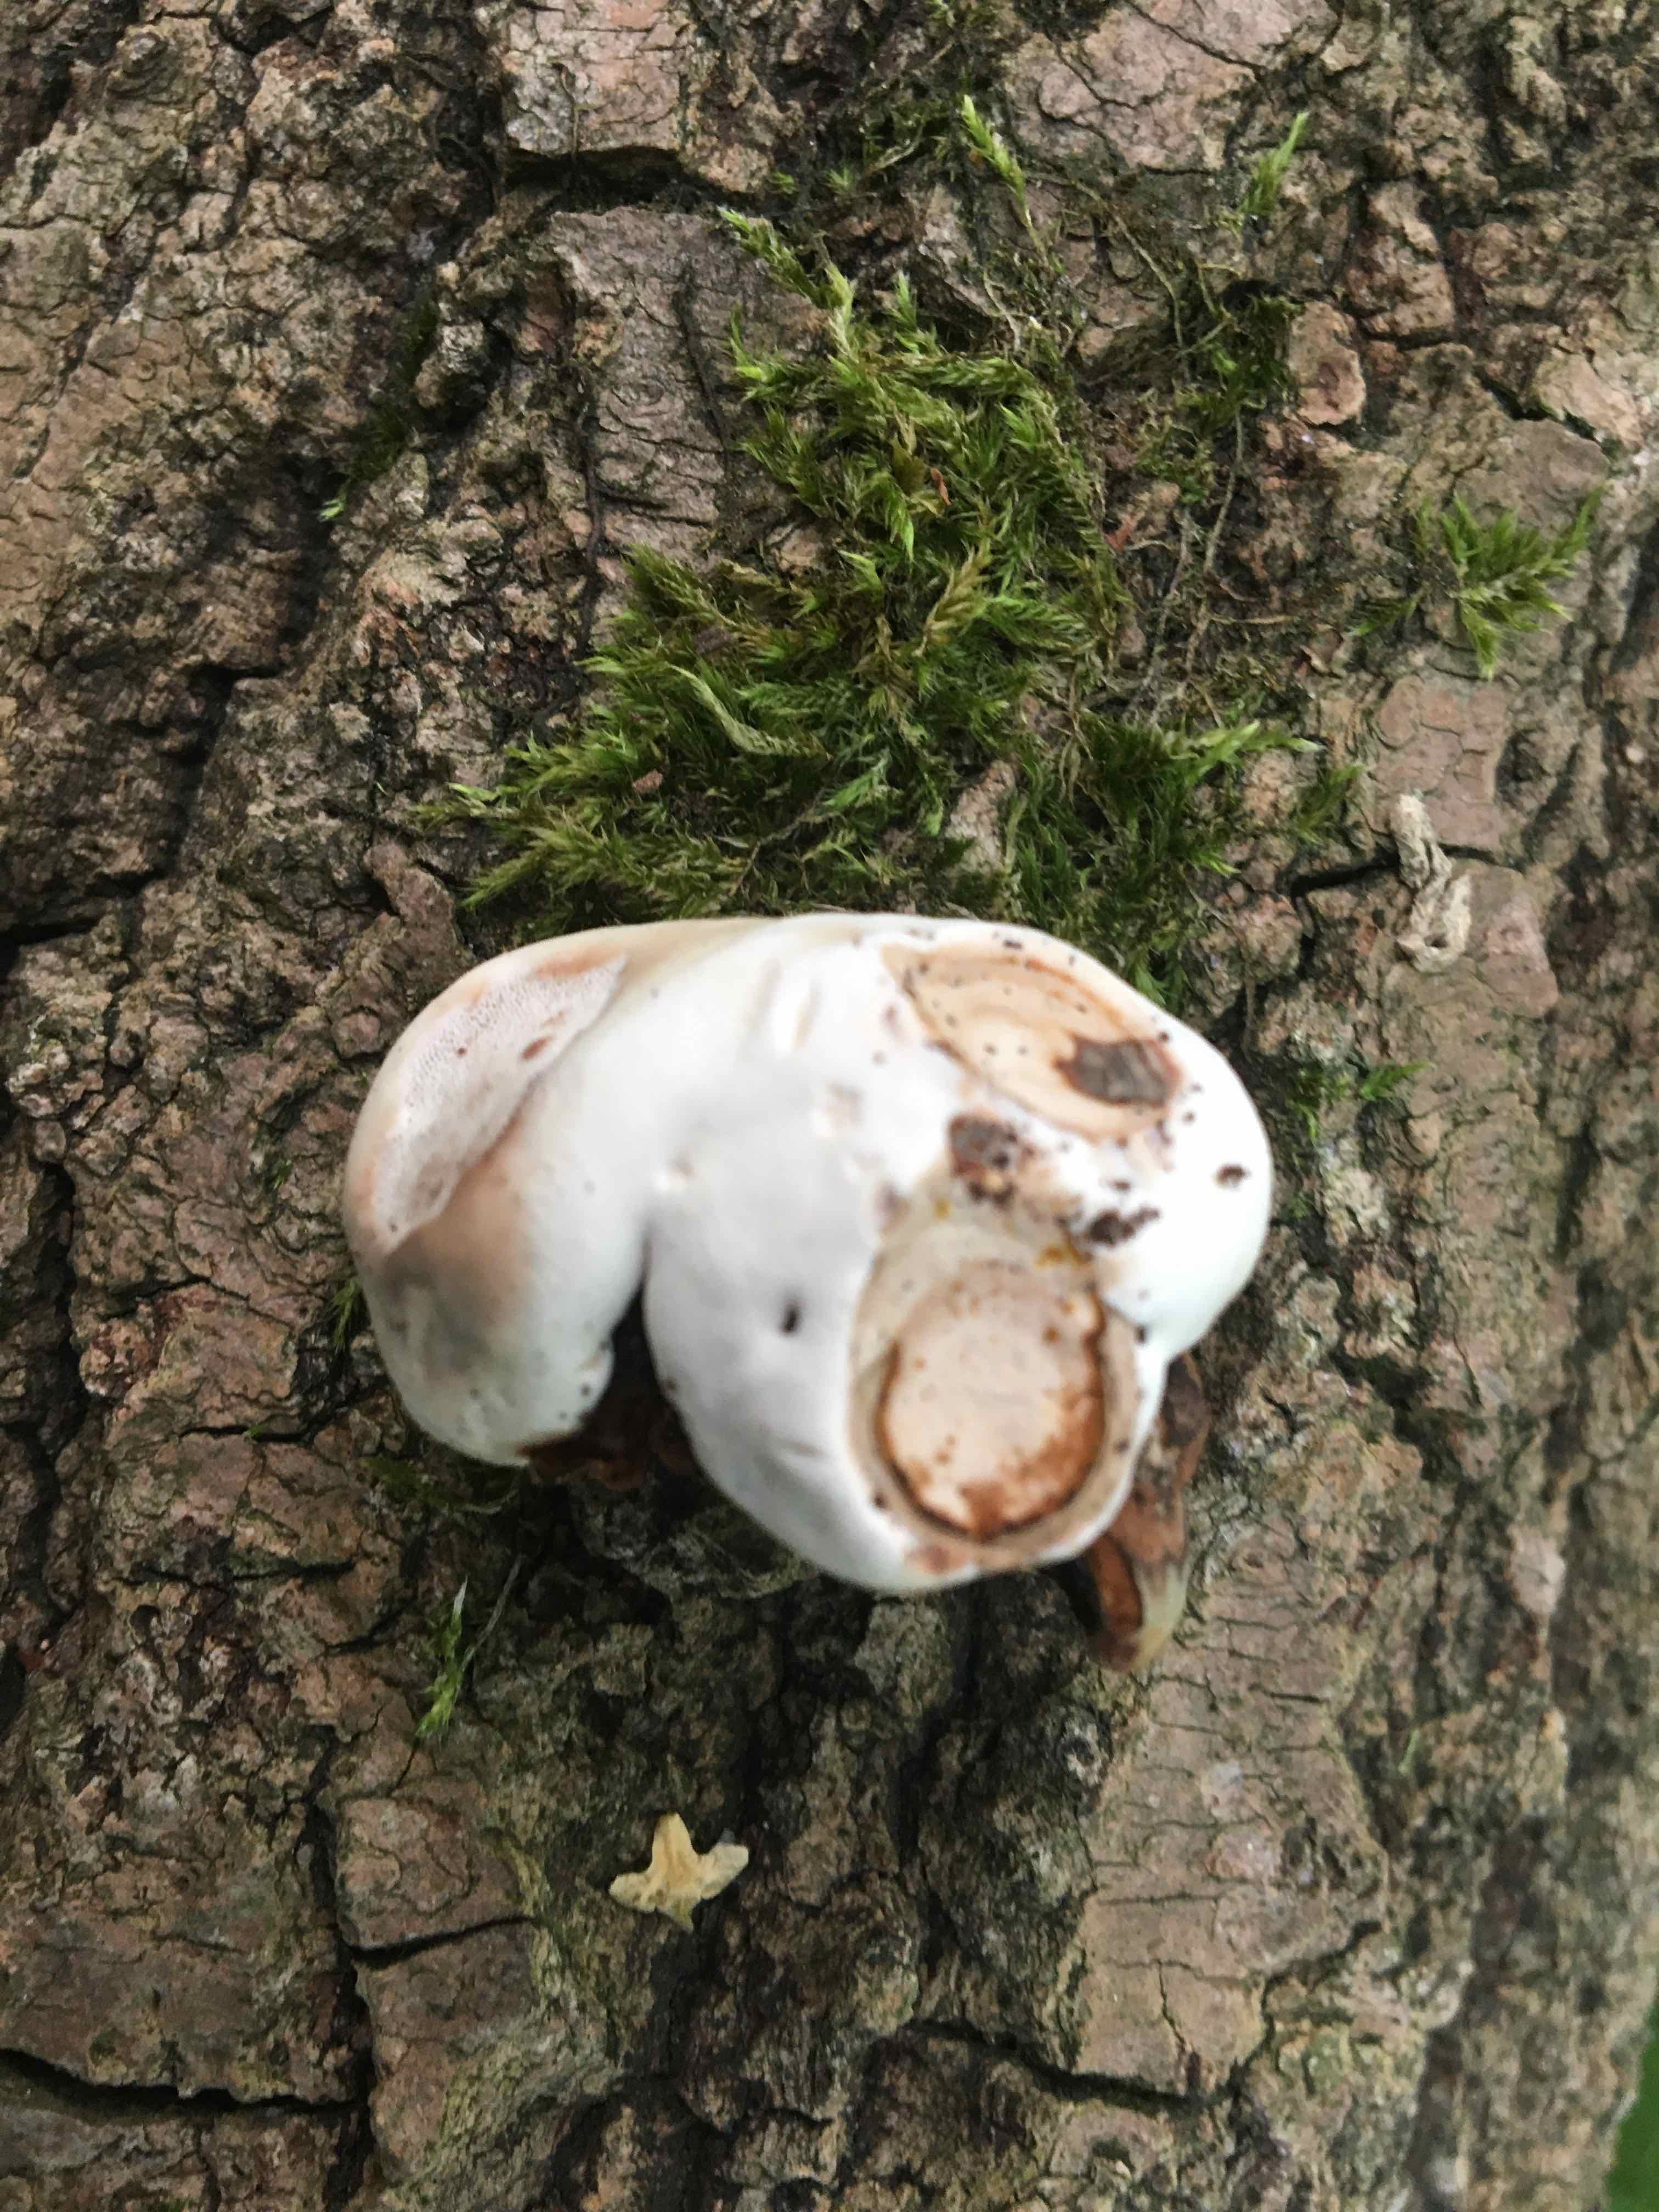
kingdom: Fungi
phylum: Basidiomycota
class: Agaricomycetes
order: Polyporales
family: Polyporaceae
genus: Ganoderma
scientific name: Ganoderma applanatum
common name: flad lakporesvamp
